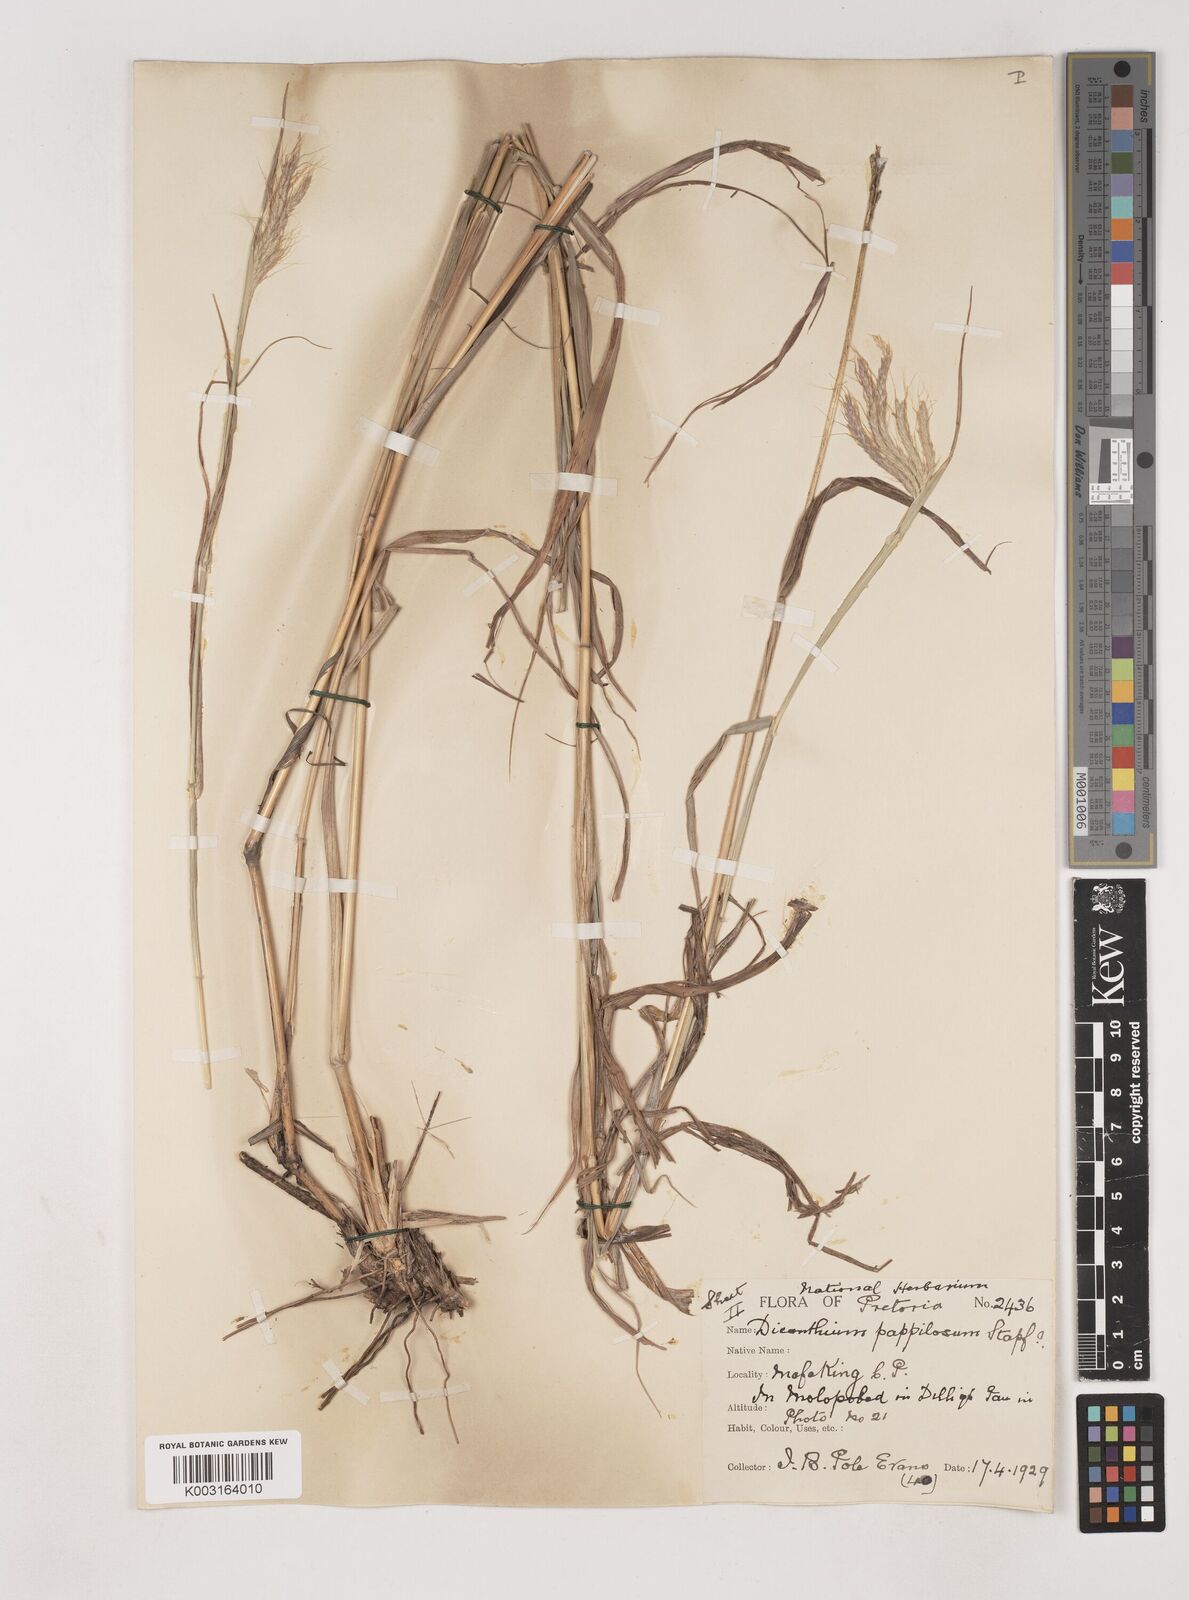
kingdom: Plantae
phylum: Tracheophyta
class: Liliopsida
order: Poales
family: Poaceae
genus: Dichanthium
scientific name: Dichanthium annulatum
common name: Kleberg's bluestem
